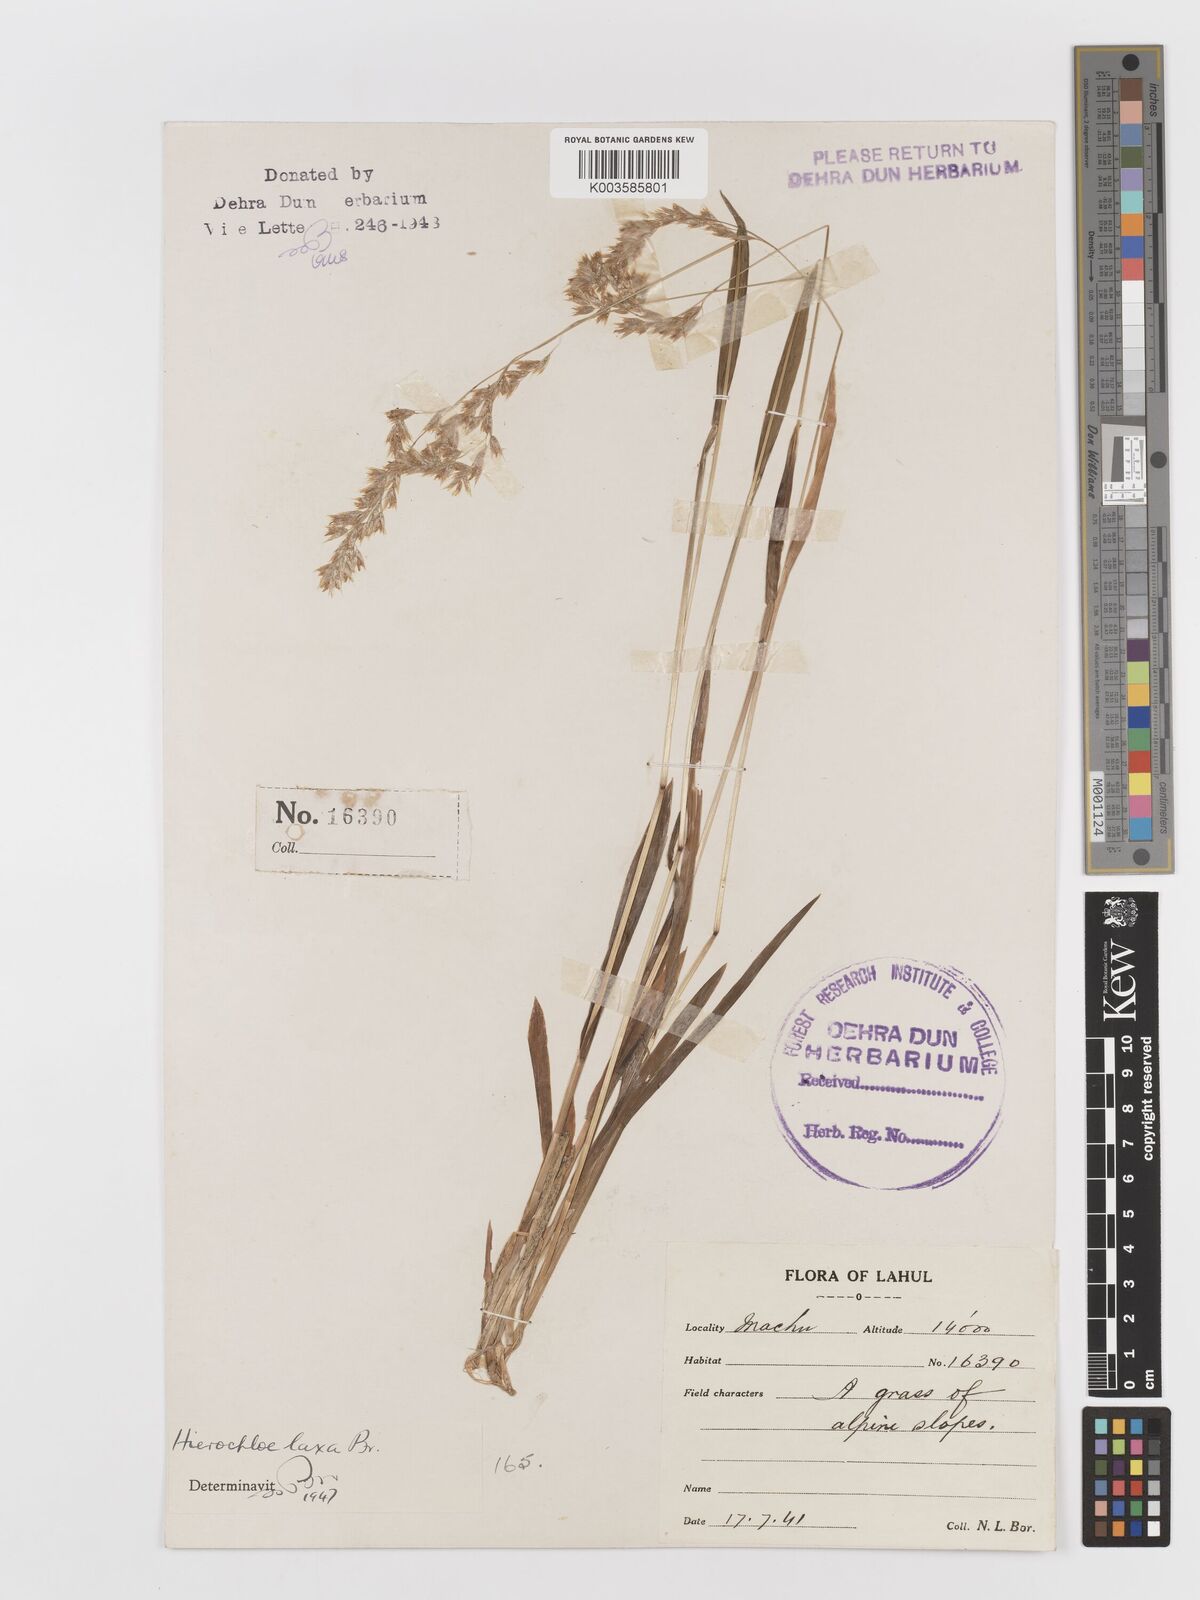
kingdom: Plantae
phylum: Tracheophyta
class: Liliopsida
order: Poales
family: Poaceae
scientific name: Poaceae
